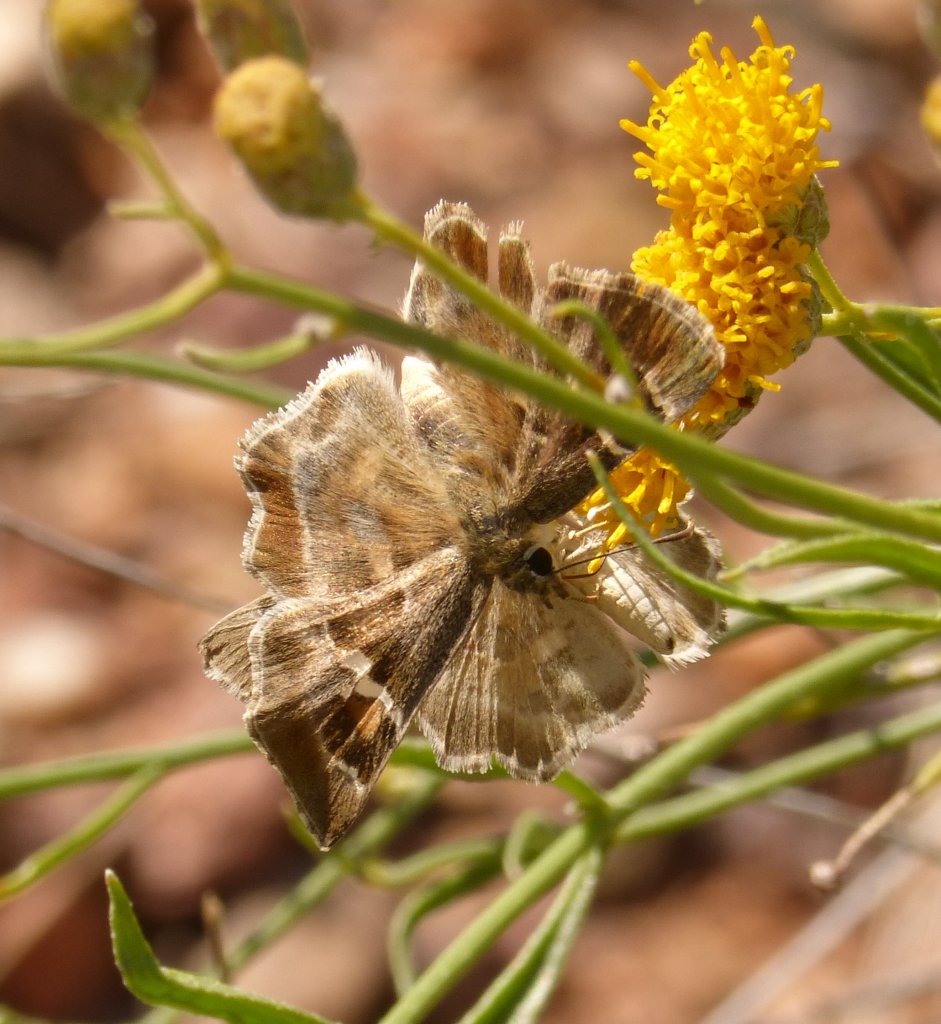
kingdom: Animalia
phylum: Arthropoda
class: Insecta
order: Lepidoptera
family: Hesperiidae
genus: Systasea
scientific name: Systasea zampa
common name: Arizona Powdered-Skipper
